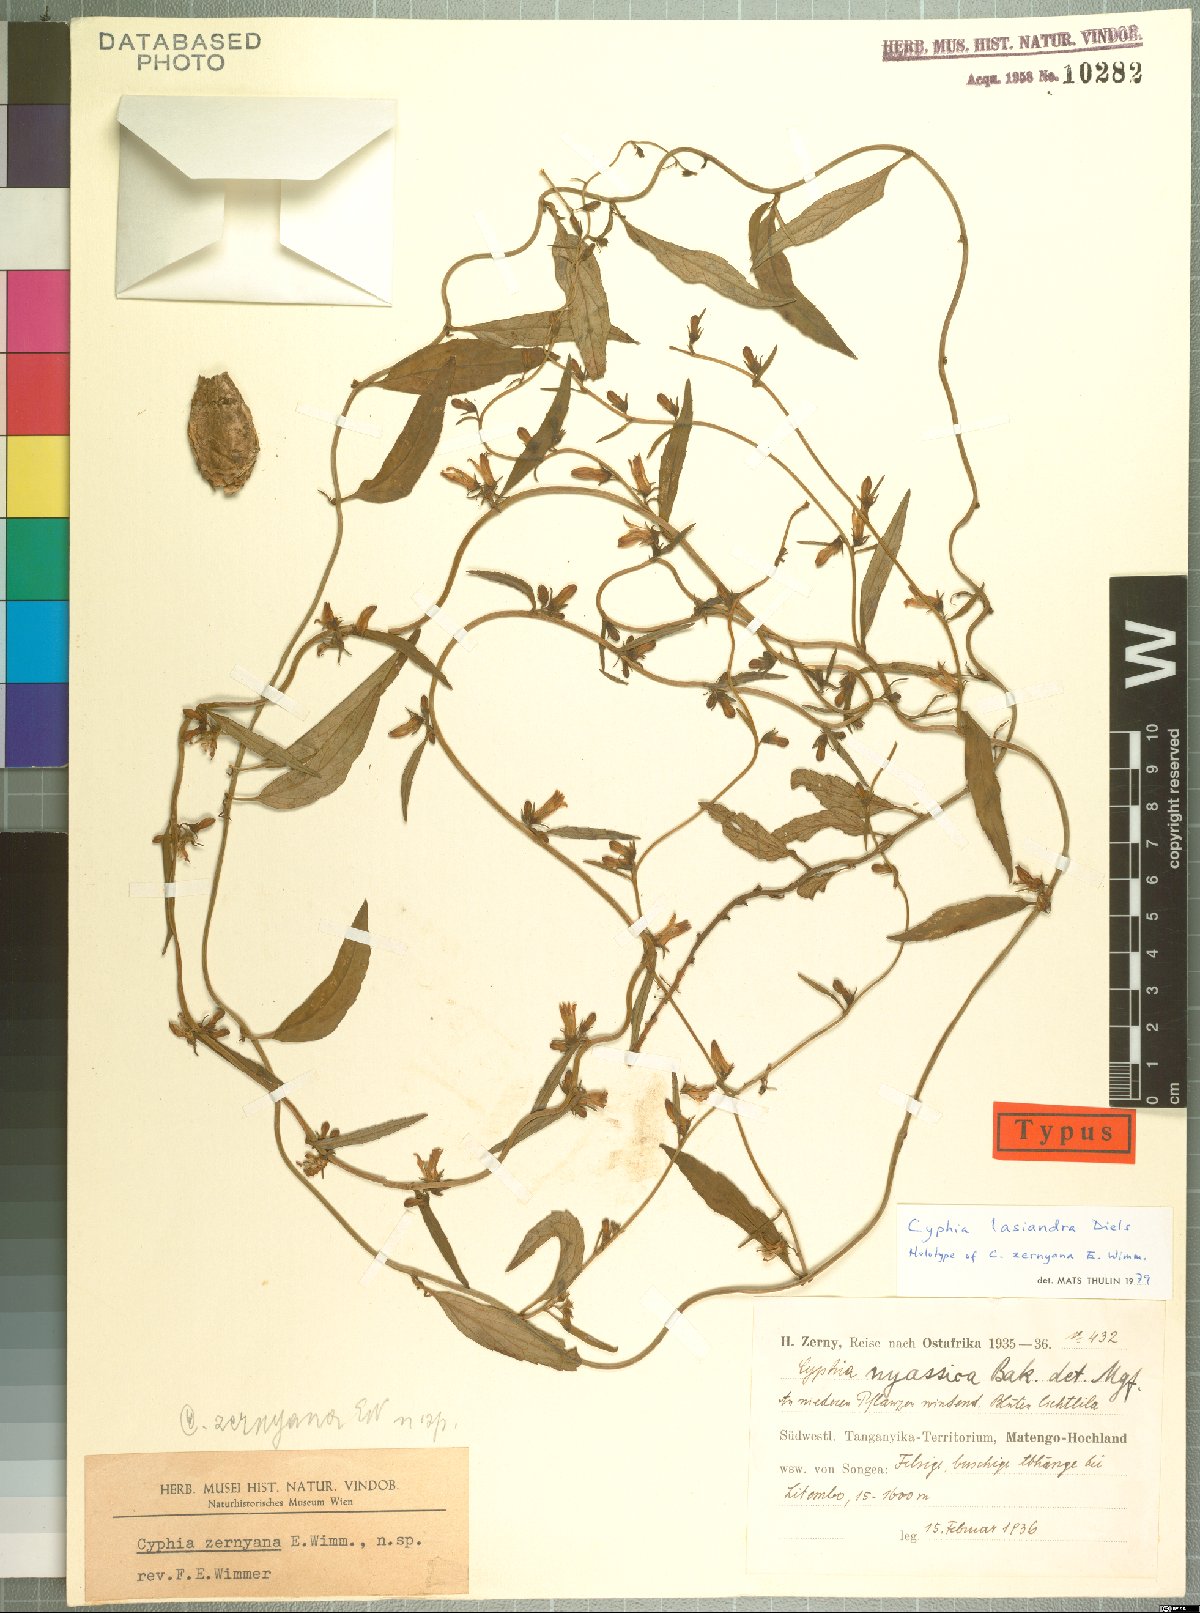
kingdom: Plantae
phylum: Tracheophyta
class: Magnoliopsida
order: Asterales
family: Campanulaceae
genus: Cyphia
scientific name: Cyphia lasiandra
